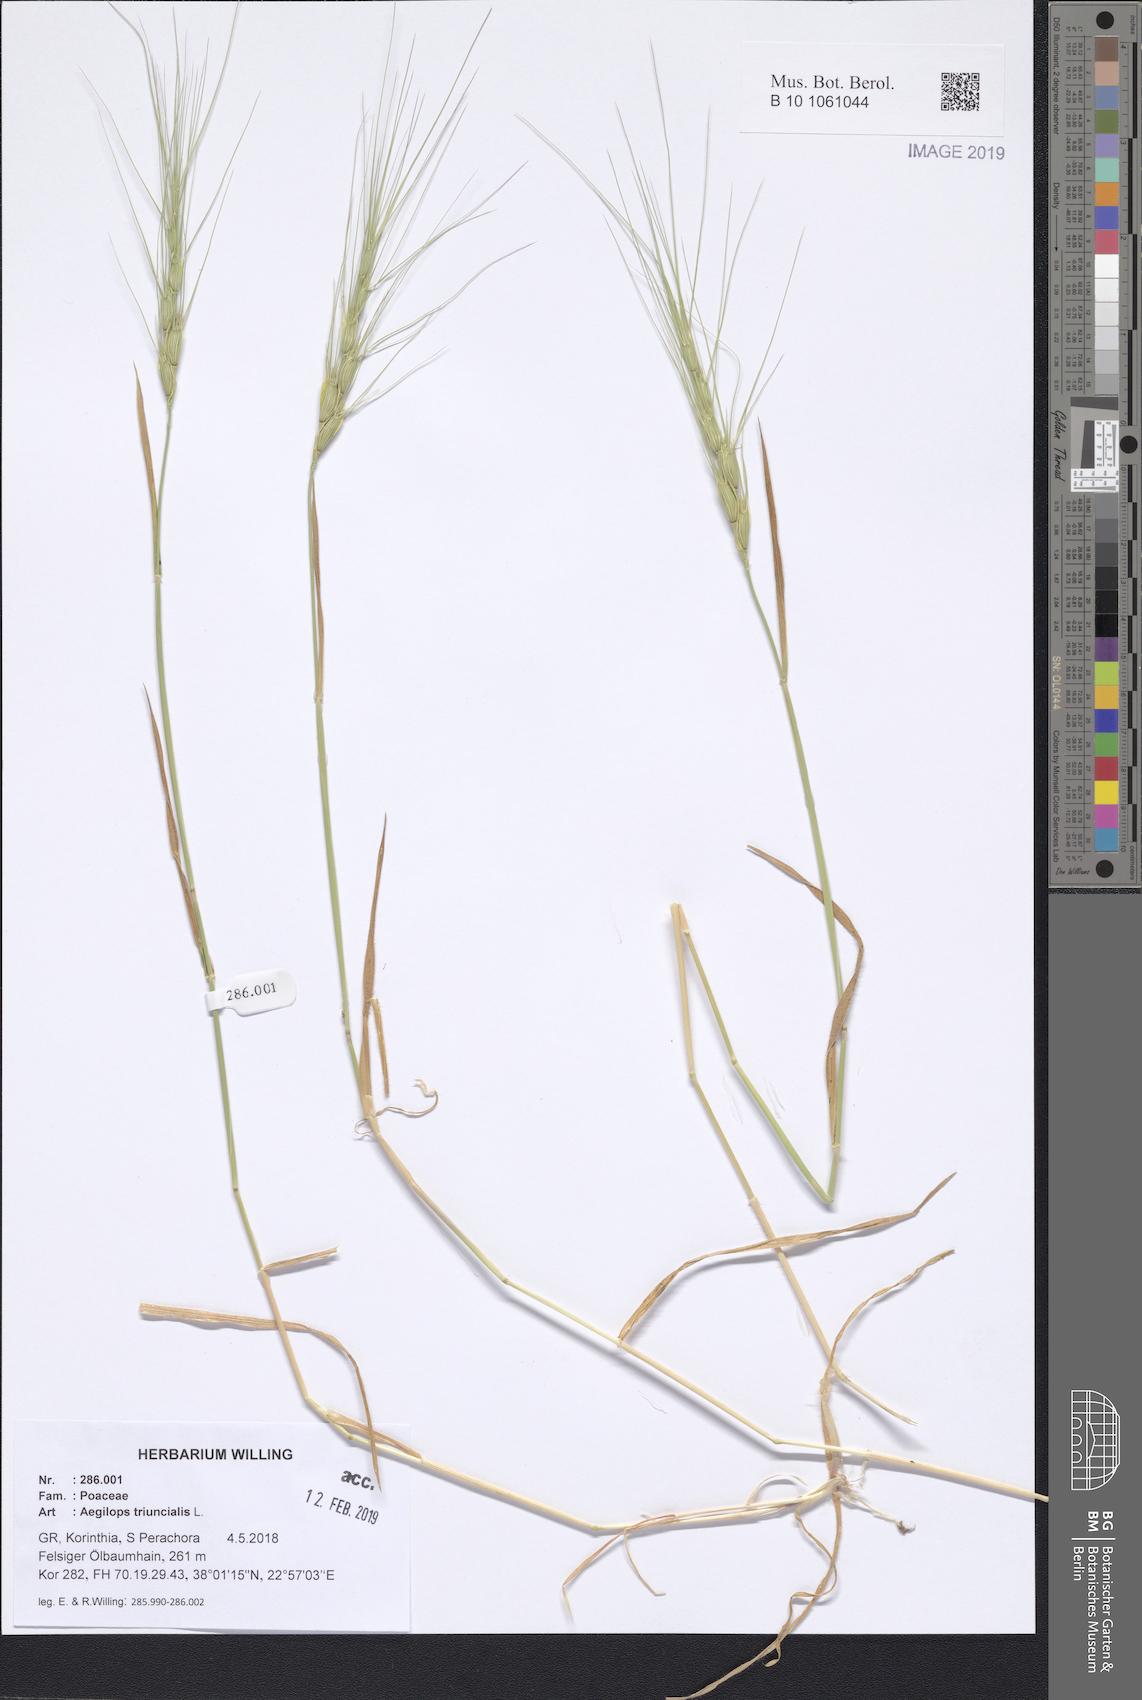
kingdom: Plantae
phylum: Tracheophyta
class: Liliopsida
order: Poales
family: Poaceae
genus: Aegilops
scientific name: Aegilops triuncialis
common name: Barb goat grass
